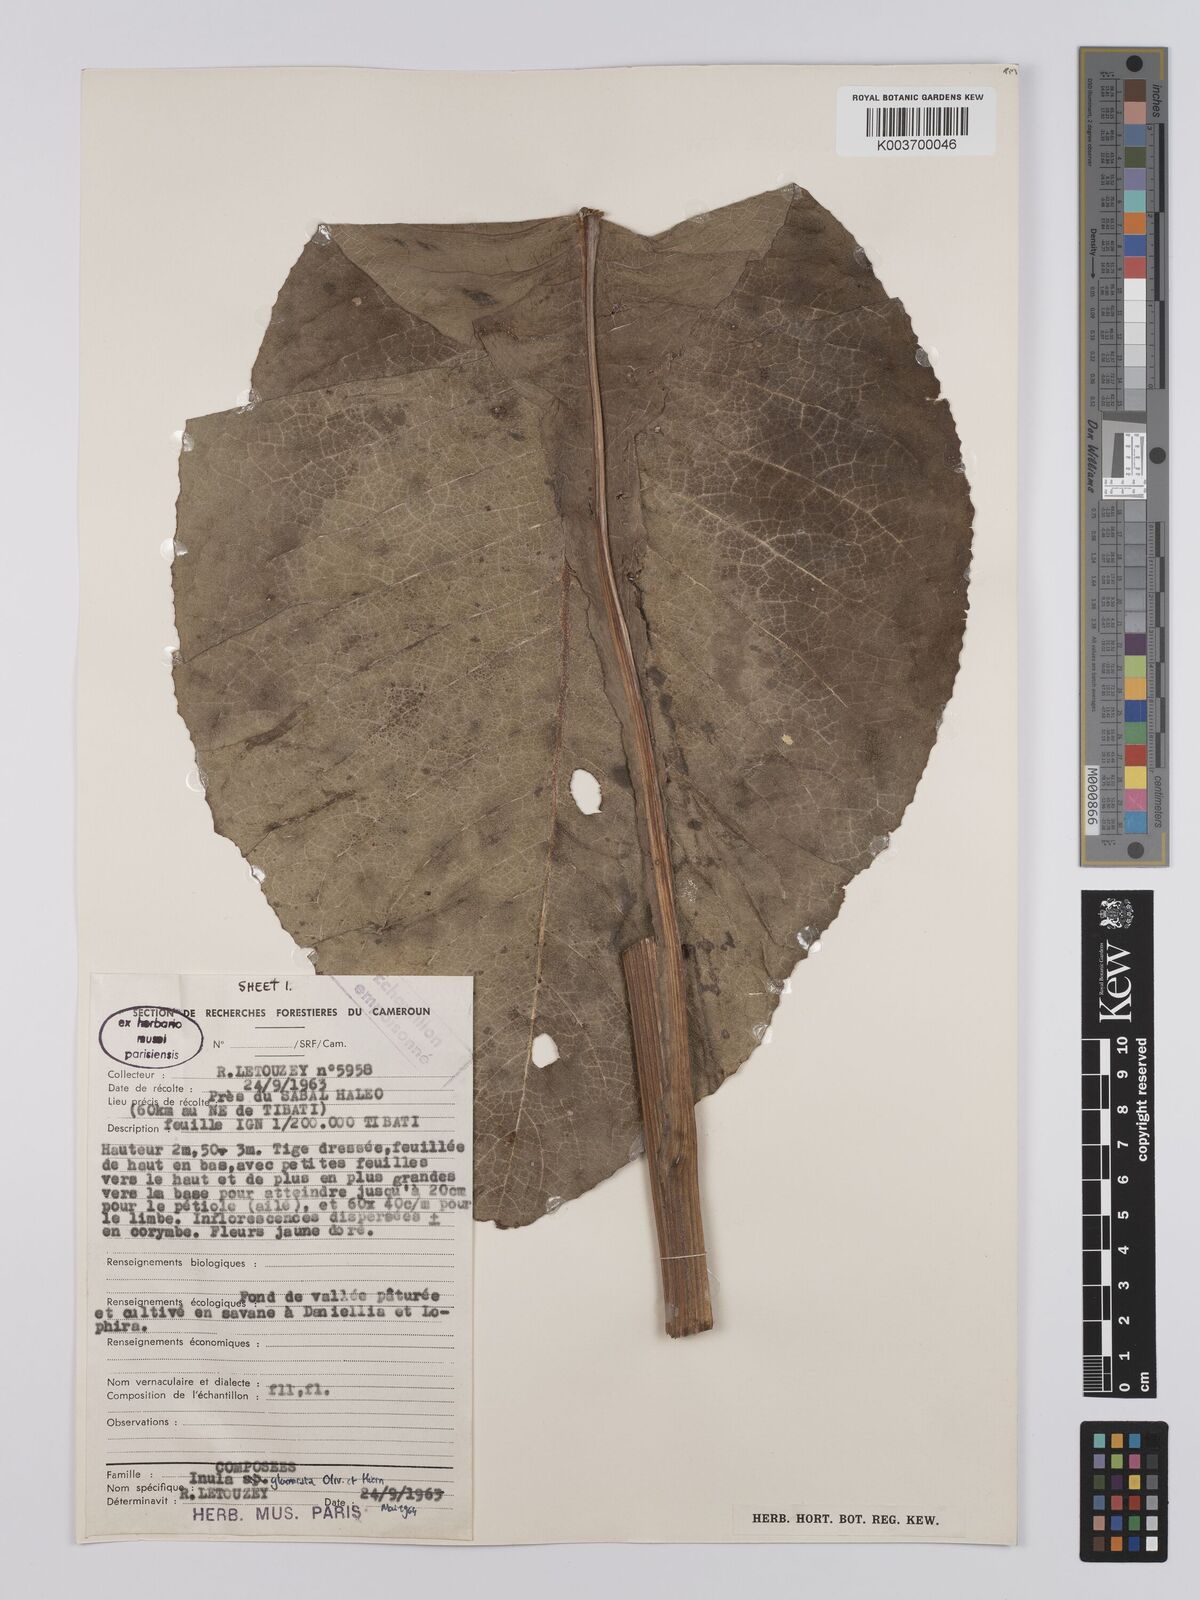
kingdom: Plantae
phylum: Tracheophyta
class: Magnoliopsida
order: Asterales
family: Asteraceae
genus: Inula
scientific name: Inula glomerata
